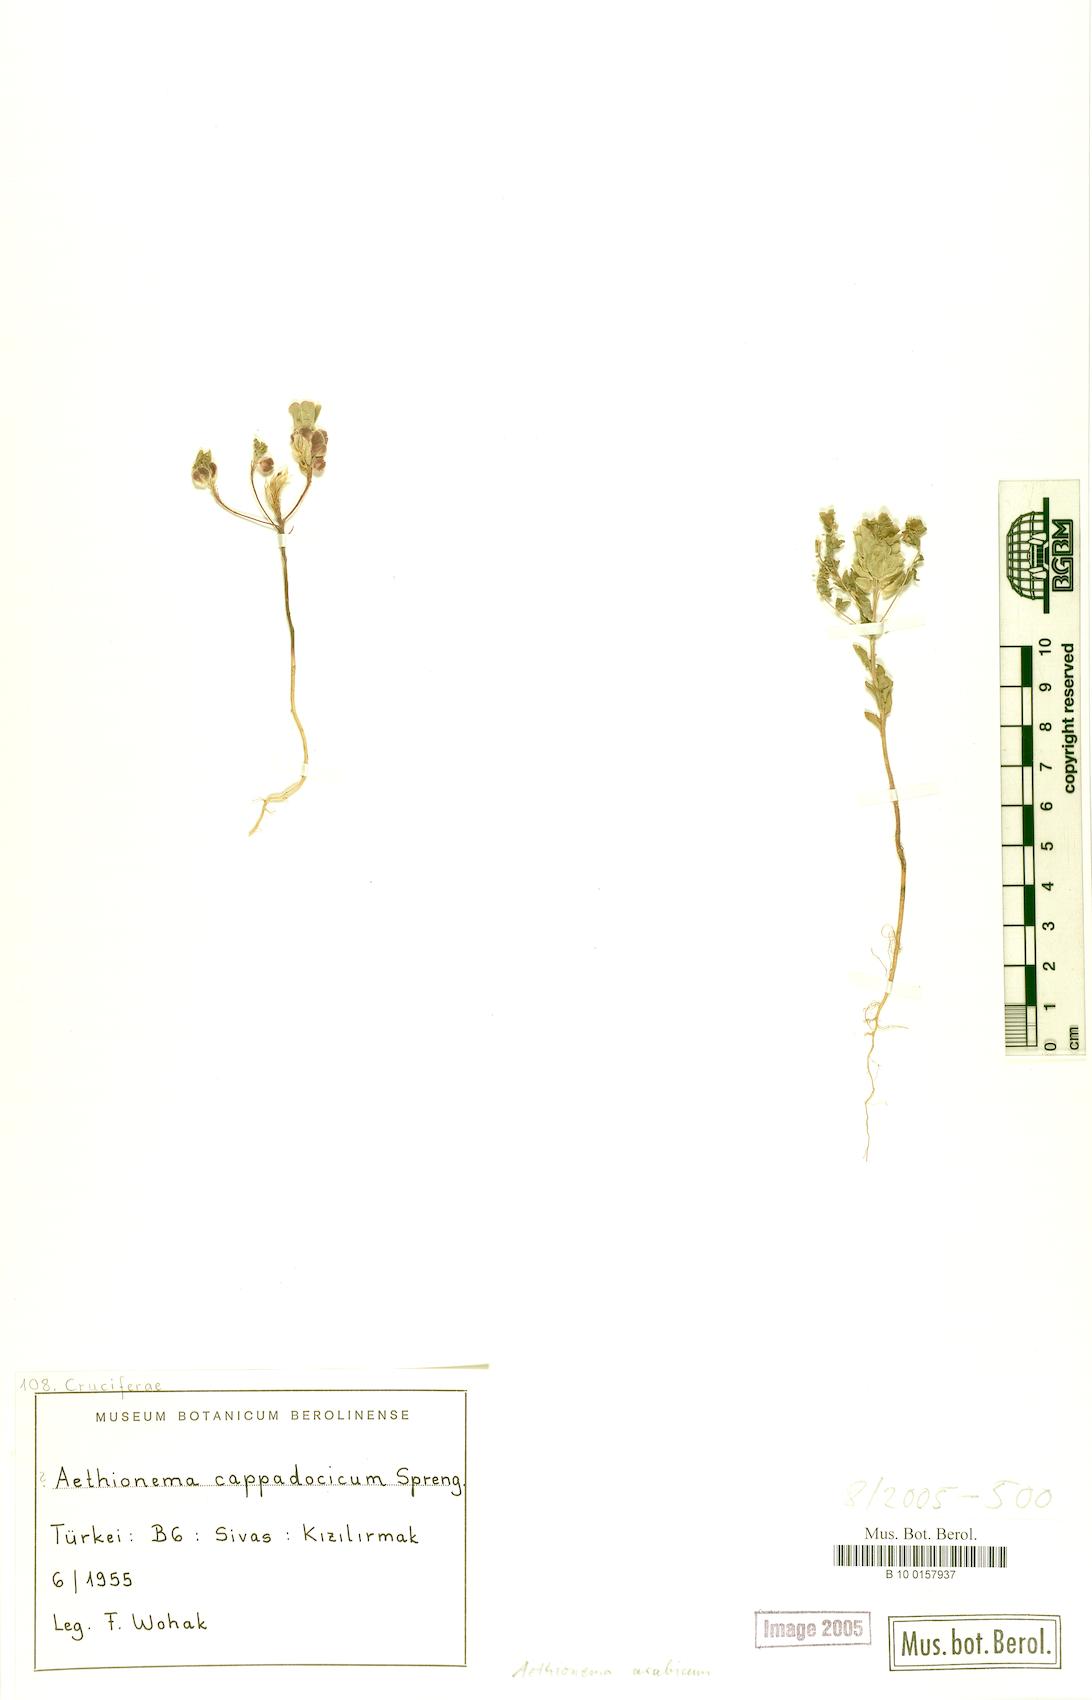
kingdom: Plantae
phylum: Tracheophyta
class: Magnoliopsida
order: Brassicales
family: Brassicaceae
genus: Aethionema
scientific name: Aethionema arabicum
